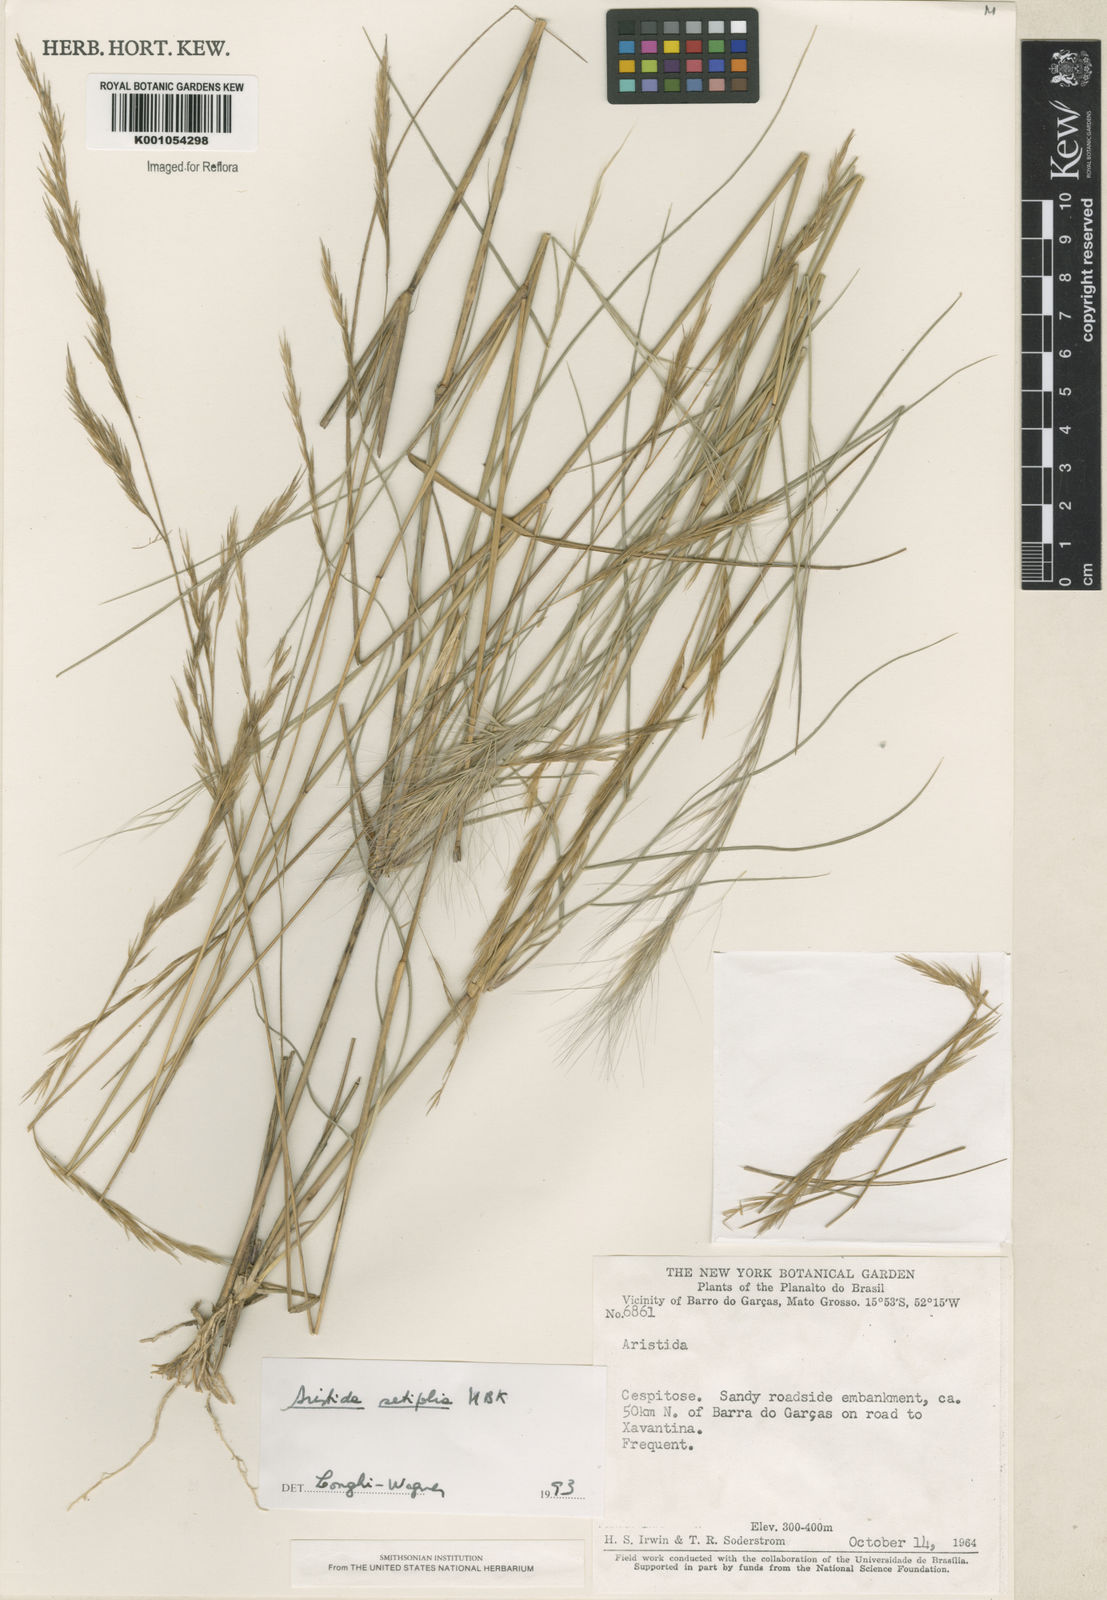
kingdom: Plantae
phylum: Tracheophyta
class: Liliopsida
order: Poales
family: Poaceae
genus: Aristida
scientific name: Aristida setifolia
